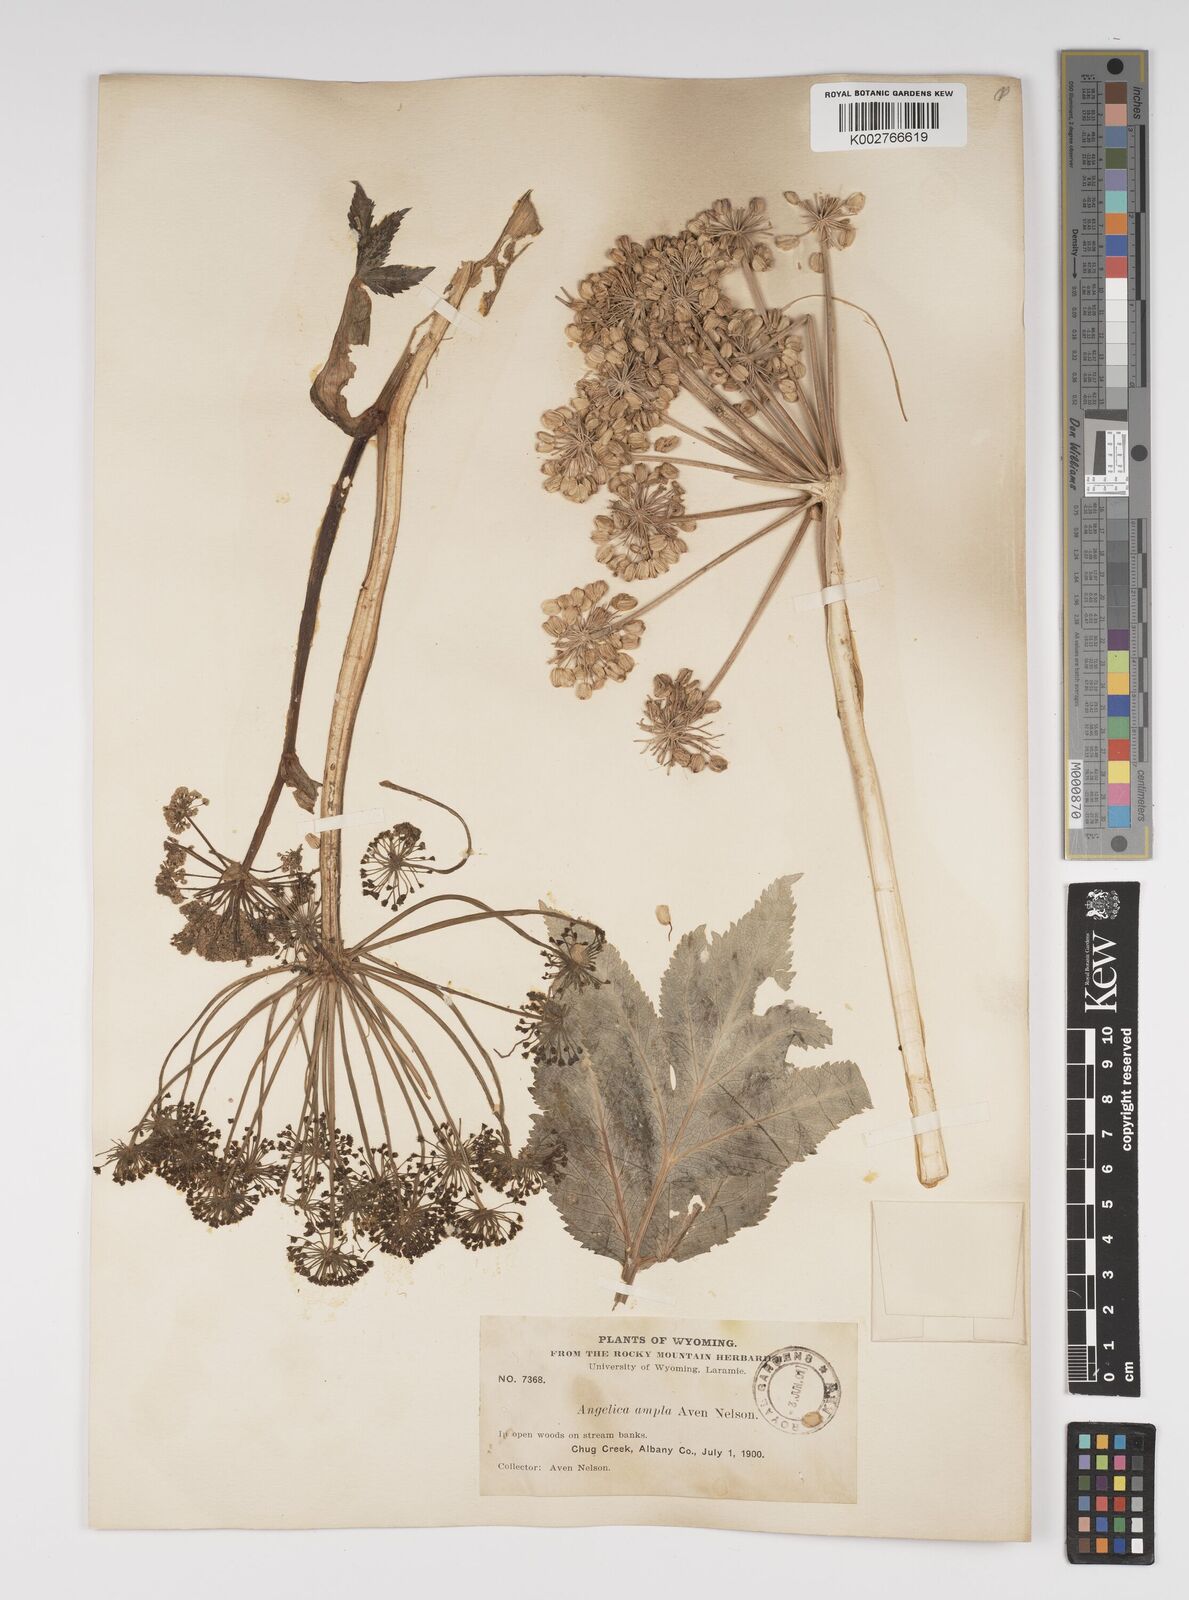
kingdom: Plantae
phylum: Tracheophyta
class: Magnoliopsida
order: Apiales
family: Apiaceae
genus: Angelica
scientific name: Angelica ampla
